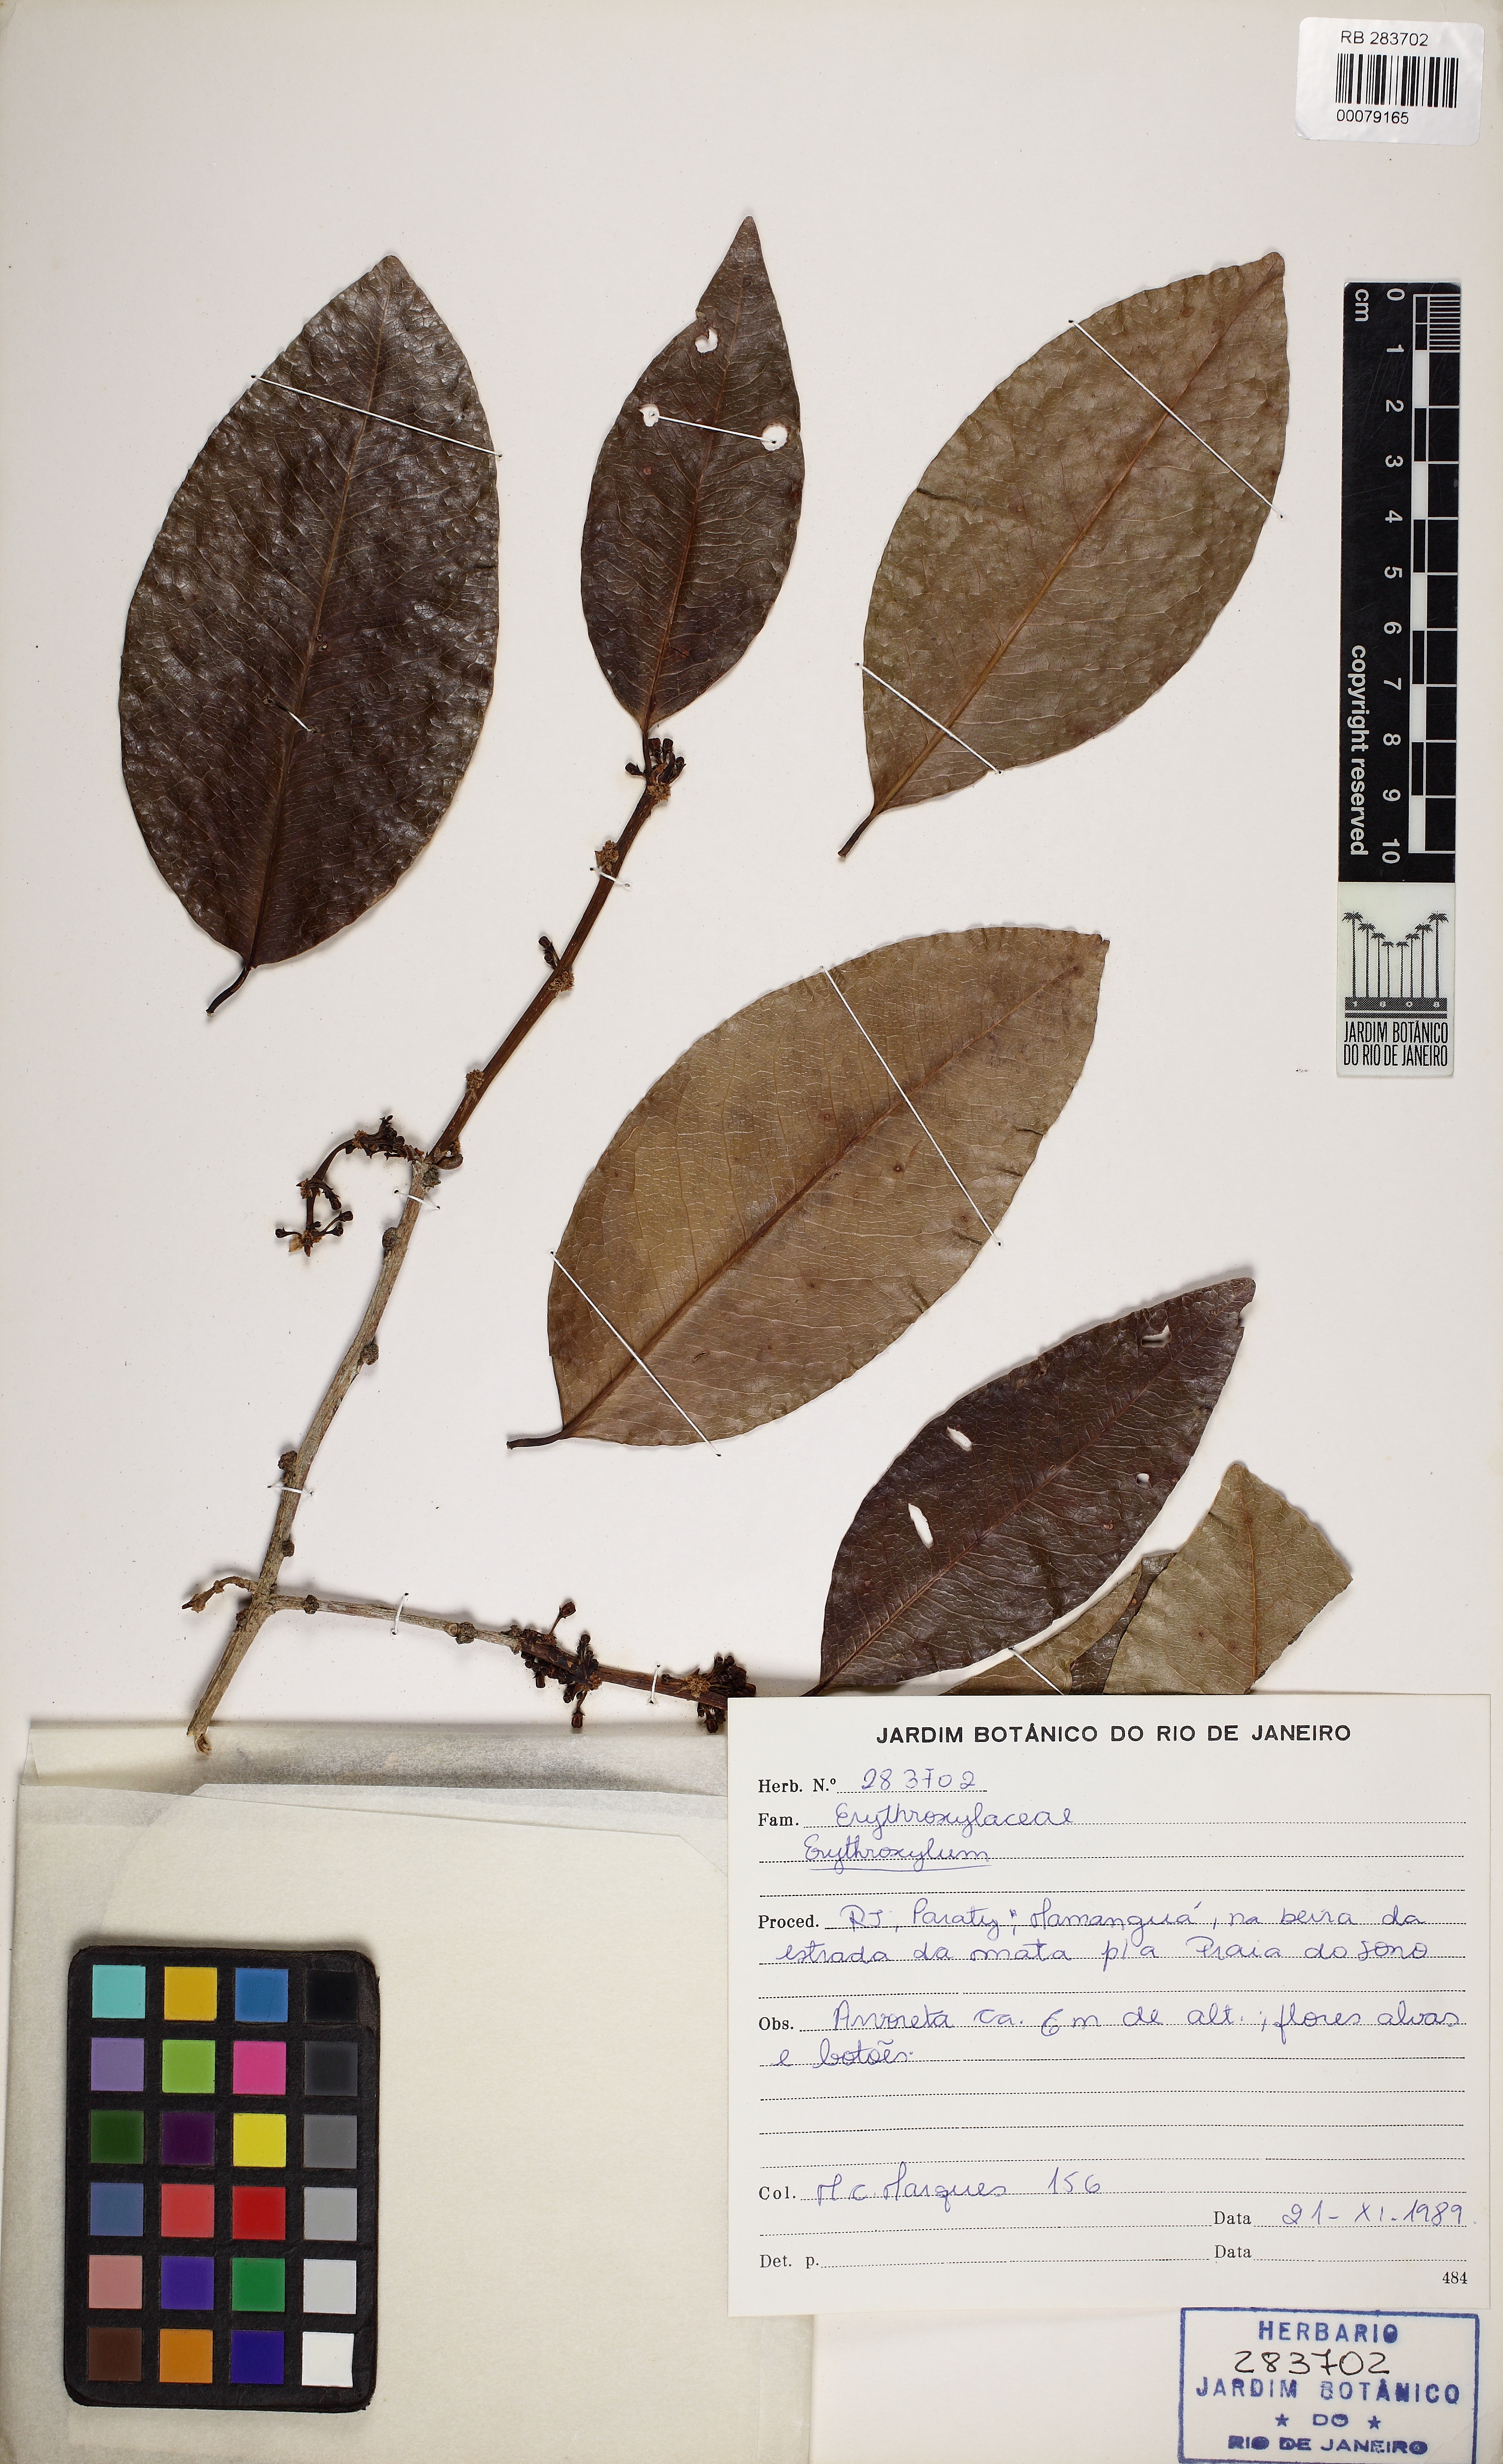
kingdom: Plantae
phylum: Tracheophyta
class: Magnoliopsida
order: Malpighiales
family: Erythroxylaceae
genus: Erythroxylum
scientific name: Erythroxylum pulchrum
